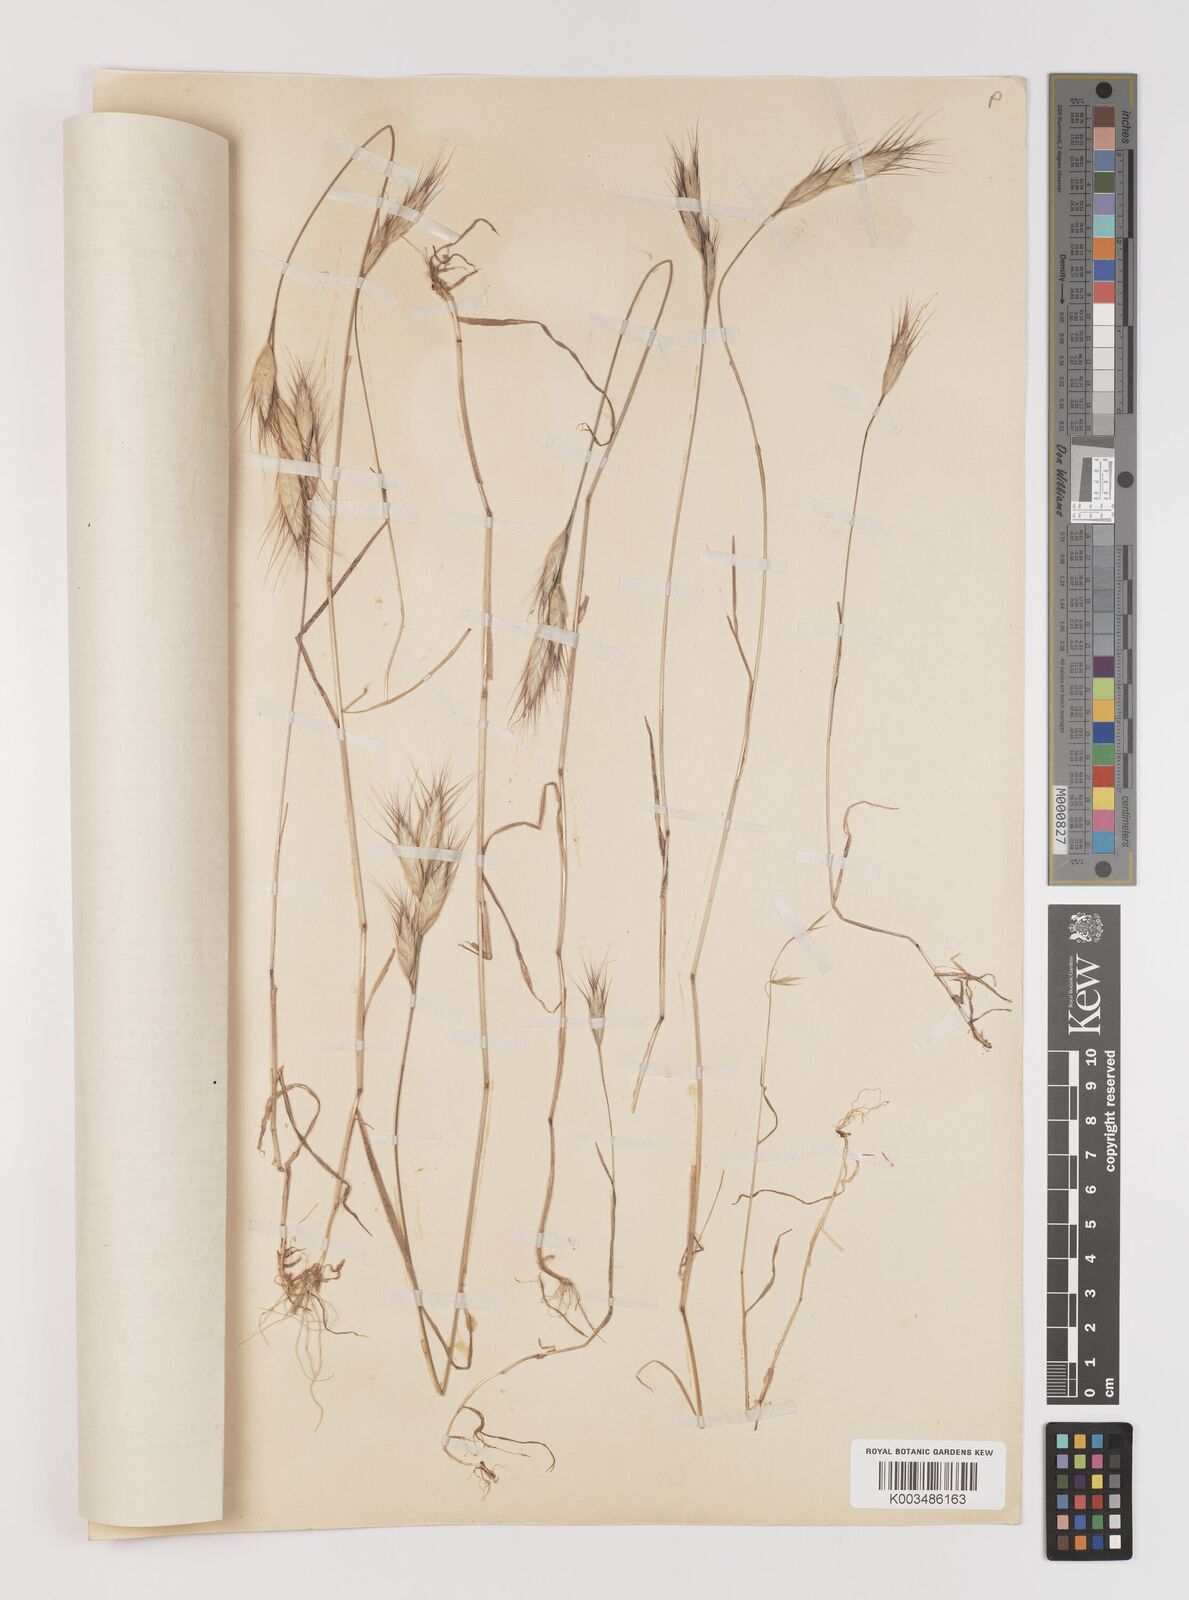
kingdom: Plantae
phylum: Tracheophyta
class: Liliopsida
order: Poales
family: Poaceae
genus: Bromus
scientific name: Bromus danthoniae
